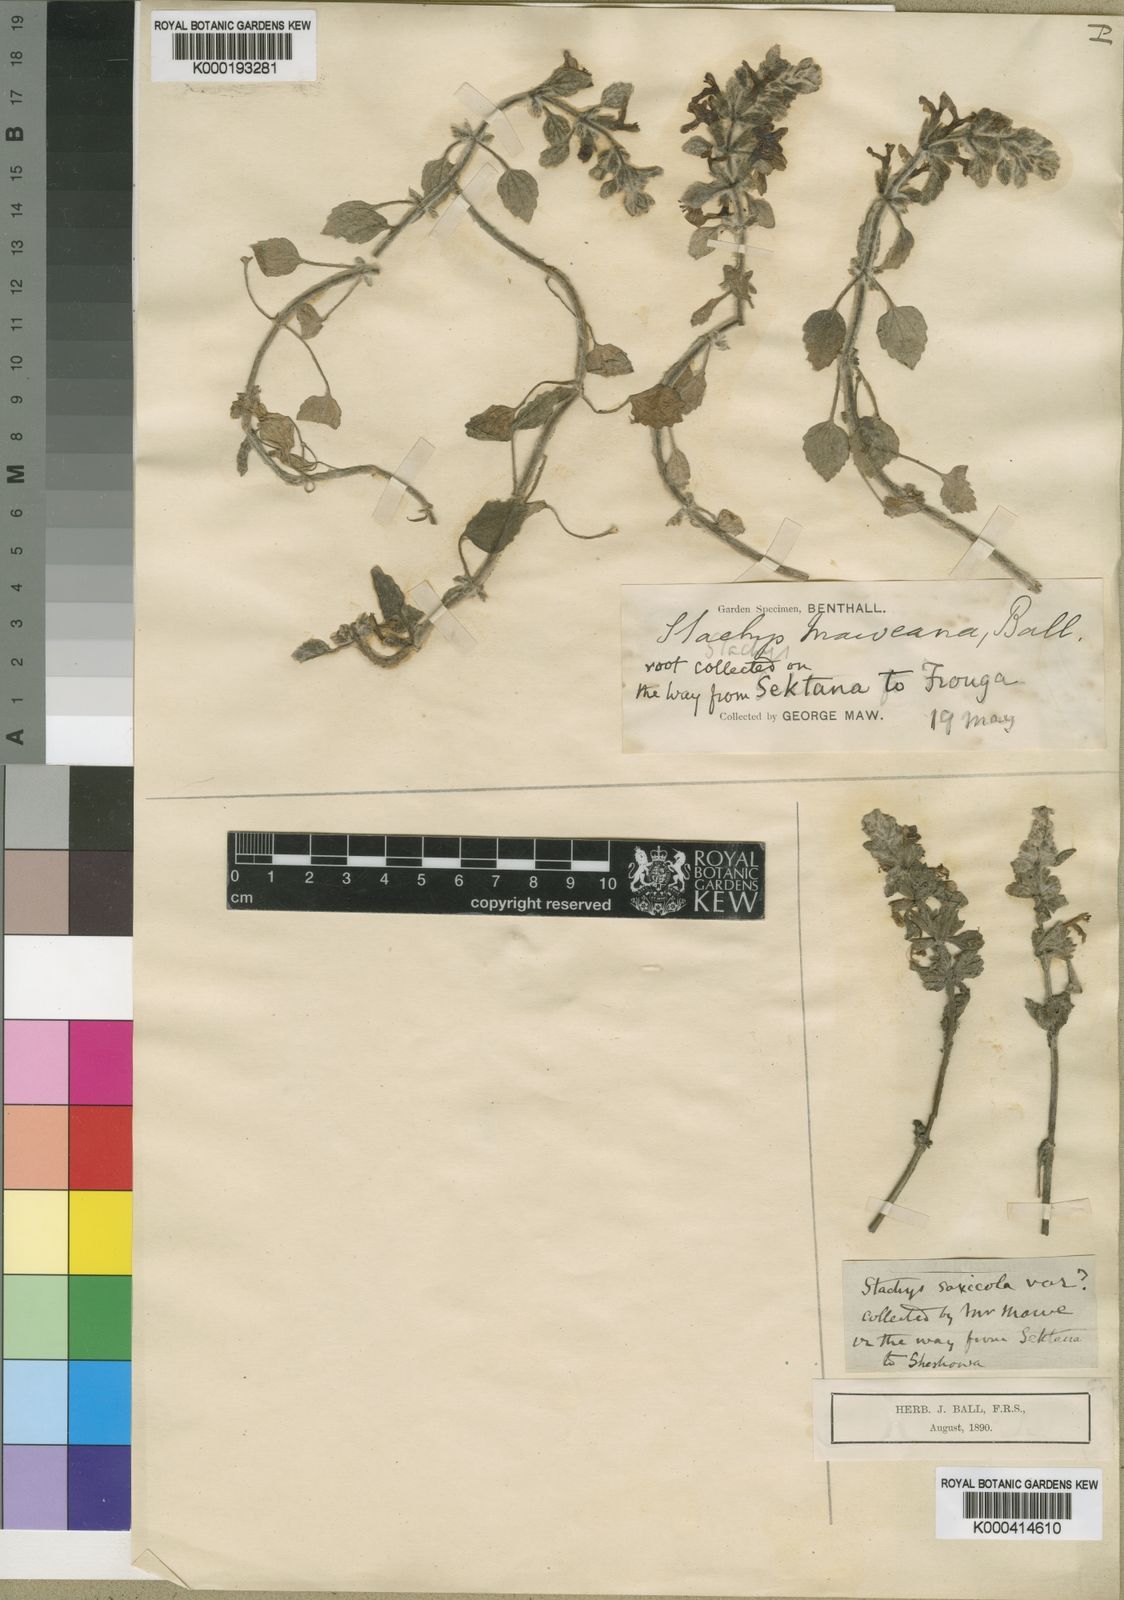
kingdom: Plantae
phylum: Tracheophyta
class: Magnoliopsida
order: Lamiales
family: Lamiaceae
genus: Stachys
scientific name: Stachys saxicola
